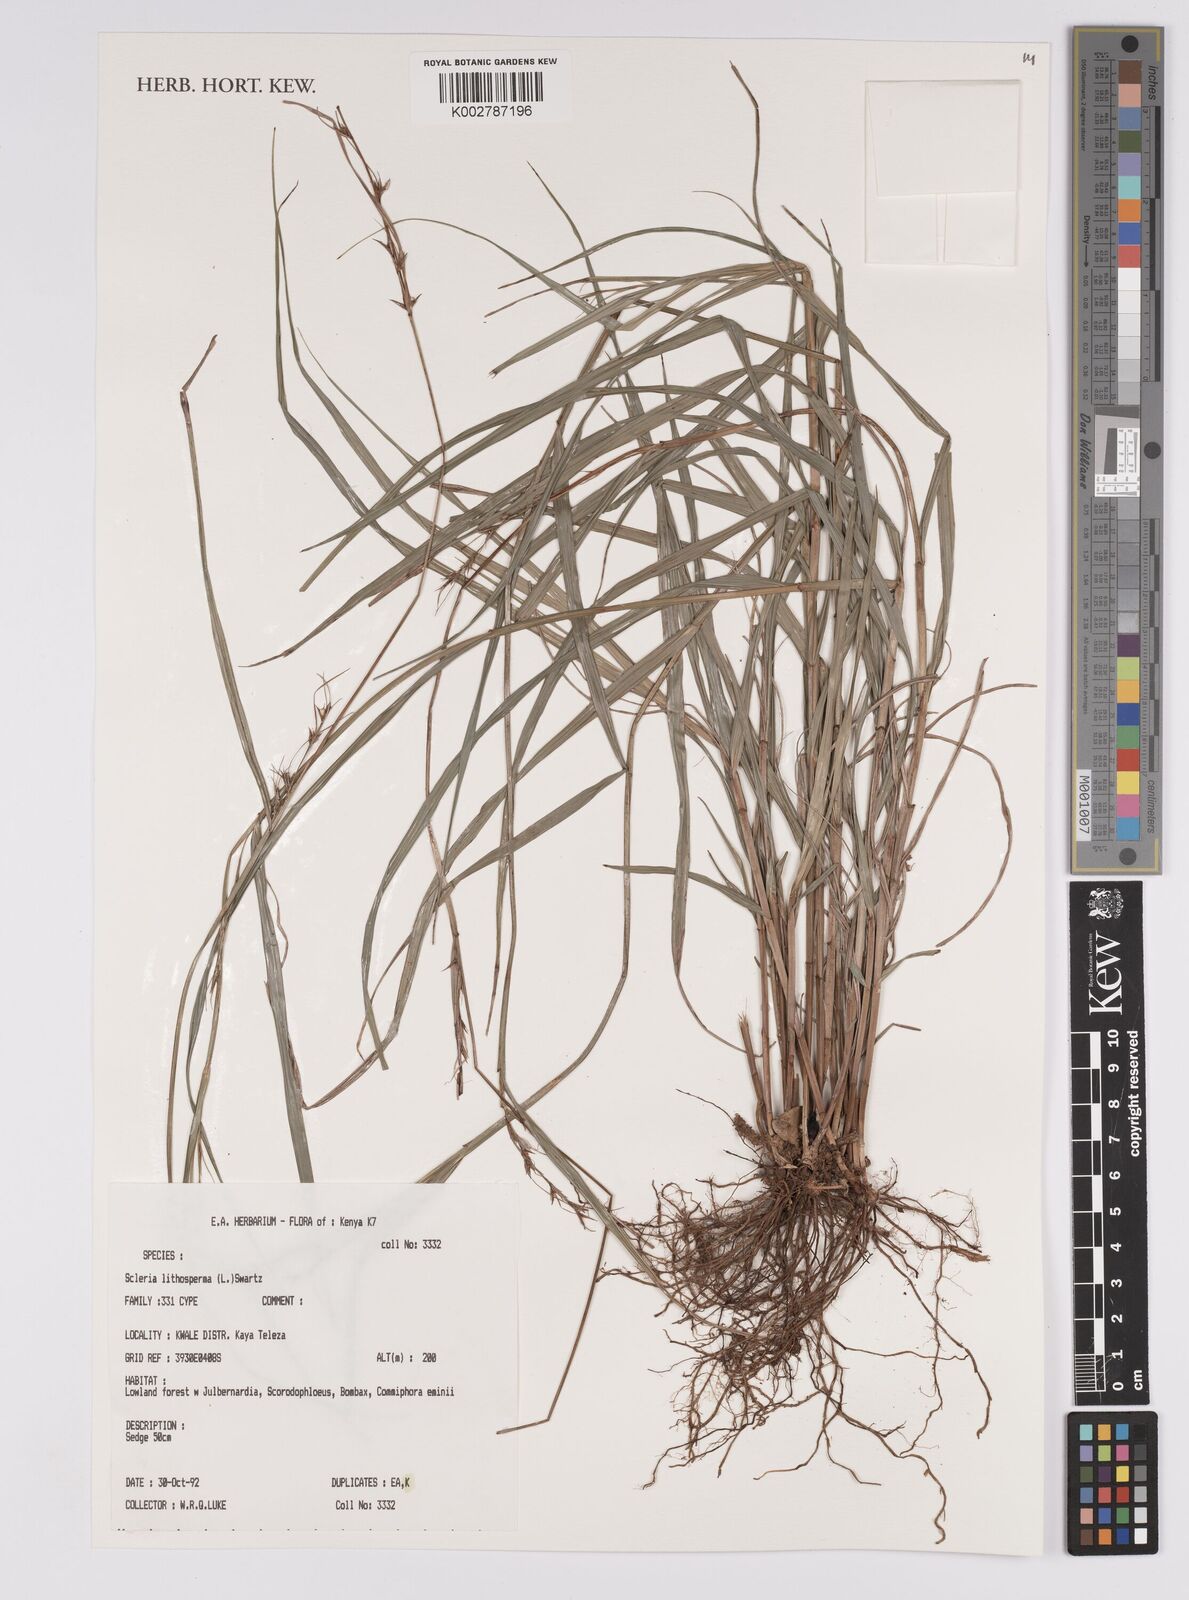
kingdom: Plantae
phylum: Tracheophyta
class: Liliopsida
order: Poales
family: Cyperaceae
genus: Scleria
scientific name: Scleria lithosperma
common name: Florida keys nut-rush
